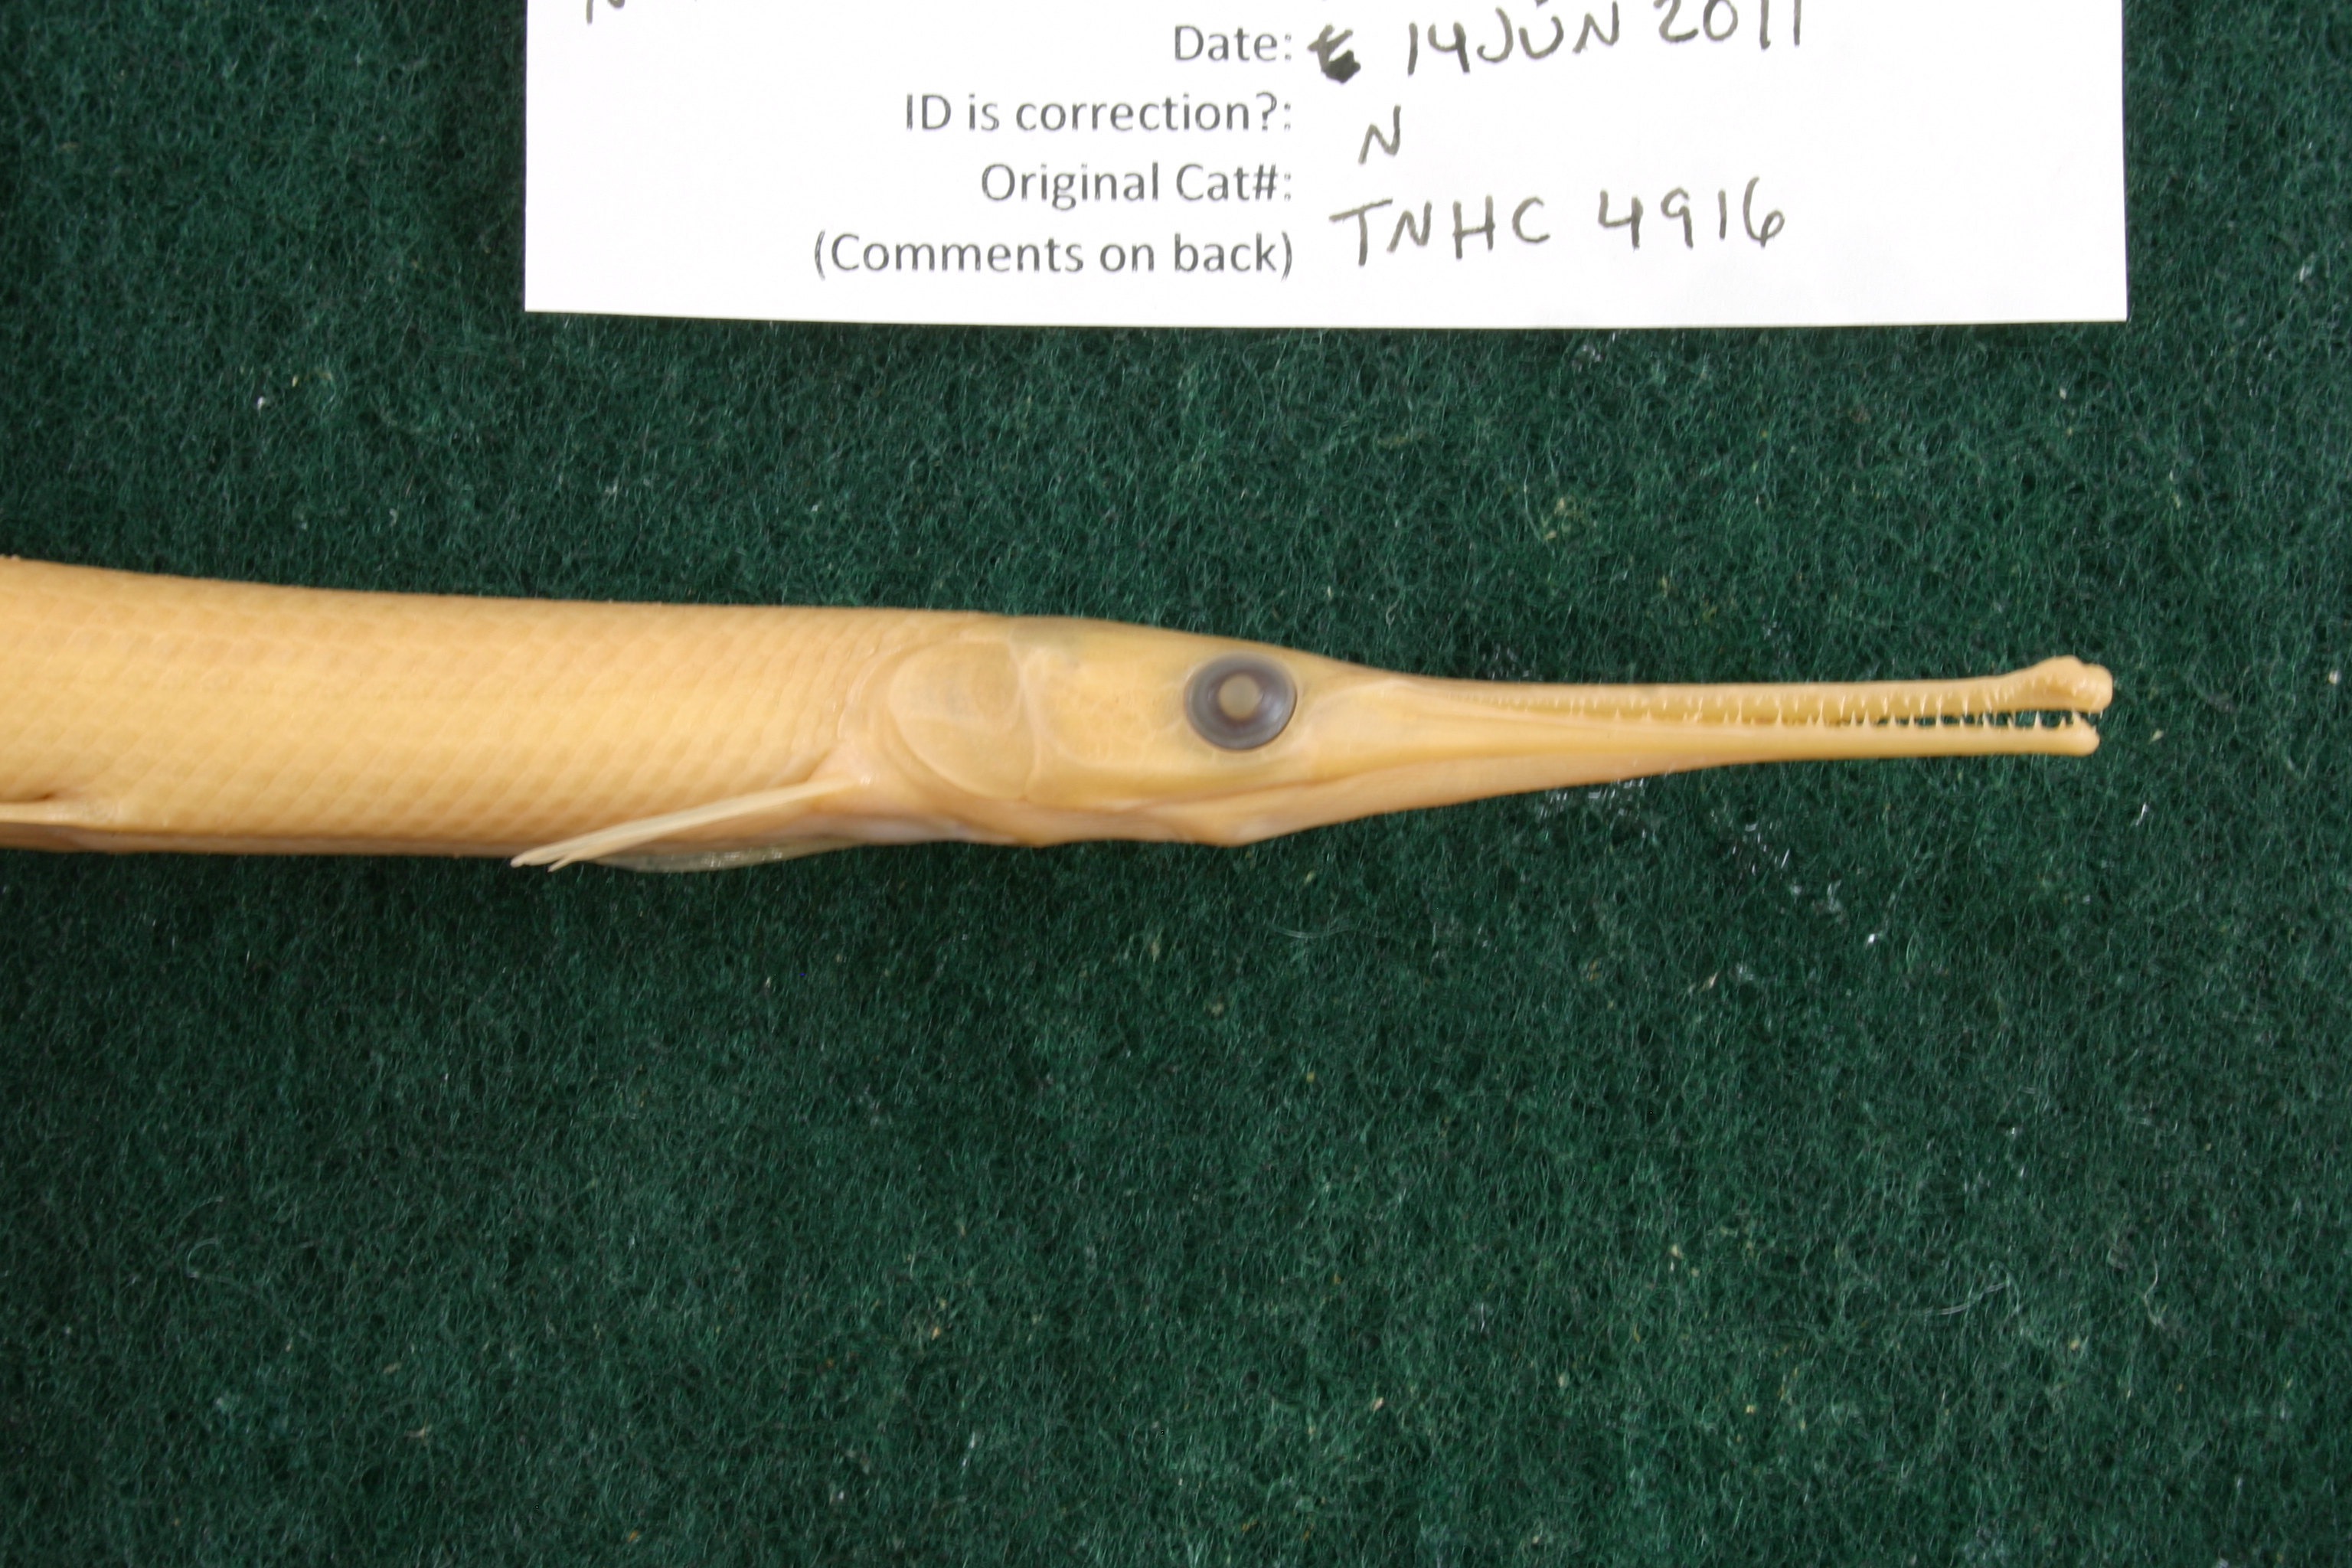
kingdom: Animalia
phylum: Chordata
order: Lepisosteiformes
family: Lepisosteidae
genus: Lepisosteus
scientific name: Lepisosteus osseus
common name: Longnose gar
